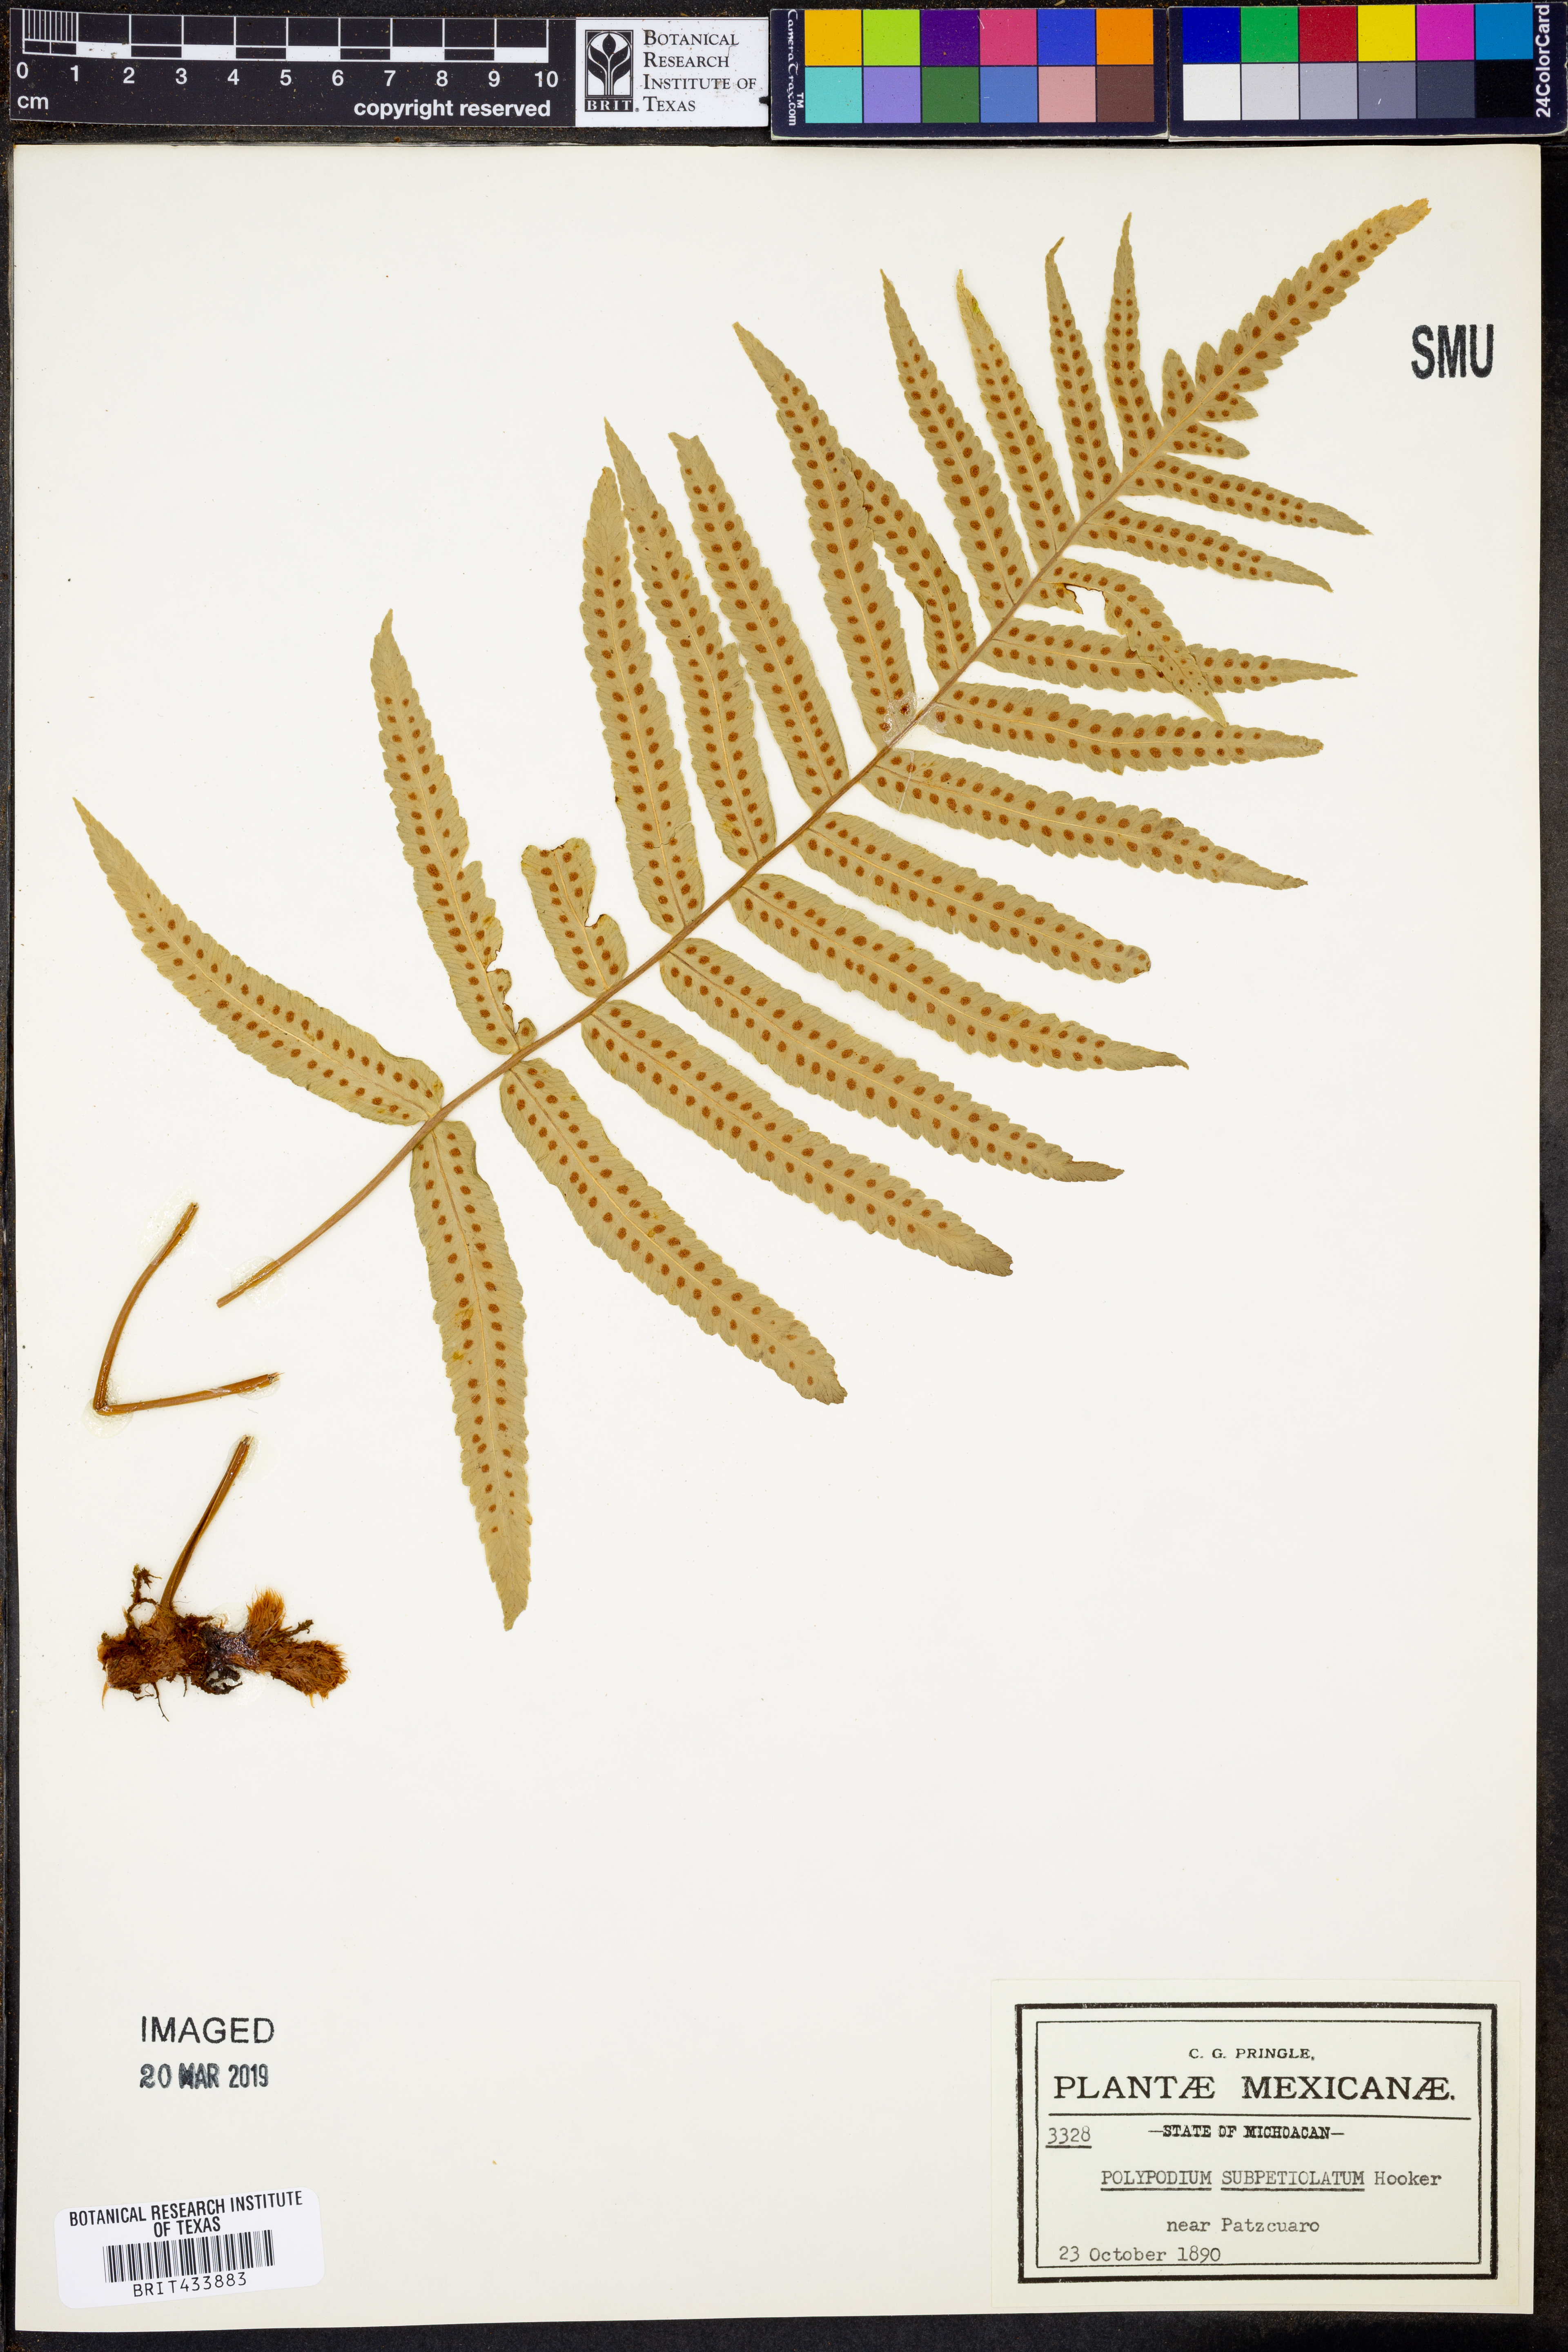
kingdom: Plantae
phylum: Tracheophyta
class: Polypodiopsida
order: Polypodiales
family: Polypodiaceae
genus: Polypodium
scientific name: Polypodium subpetiolatum
